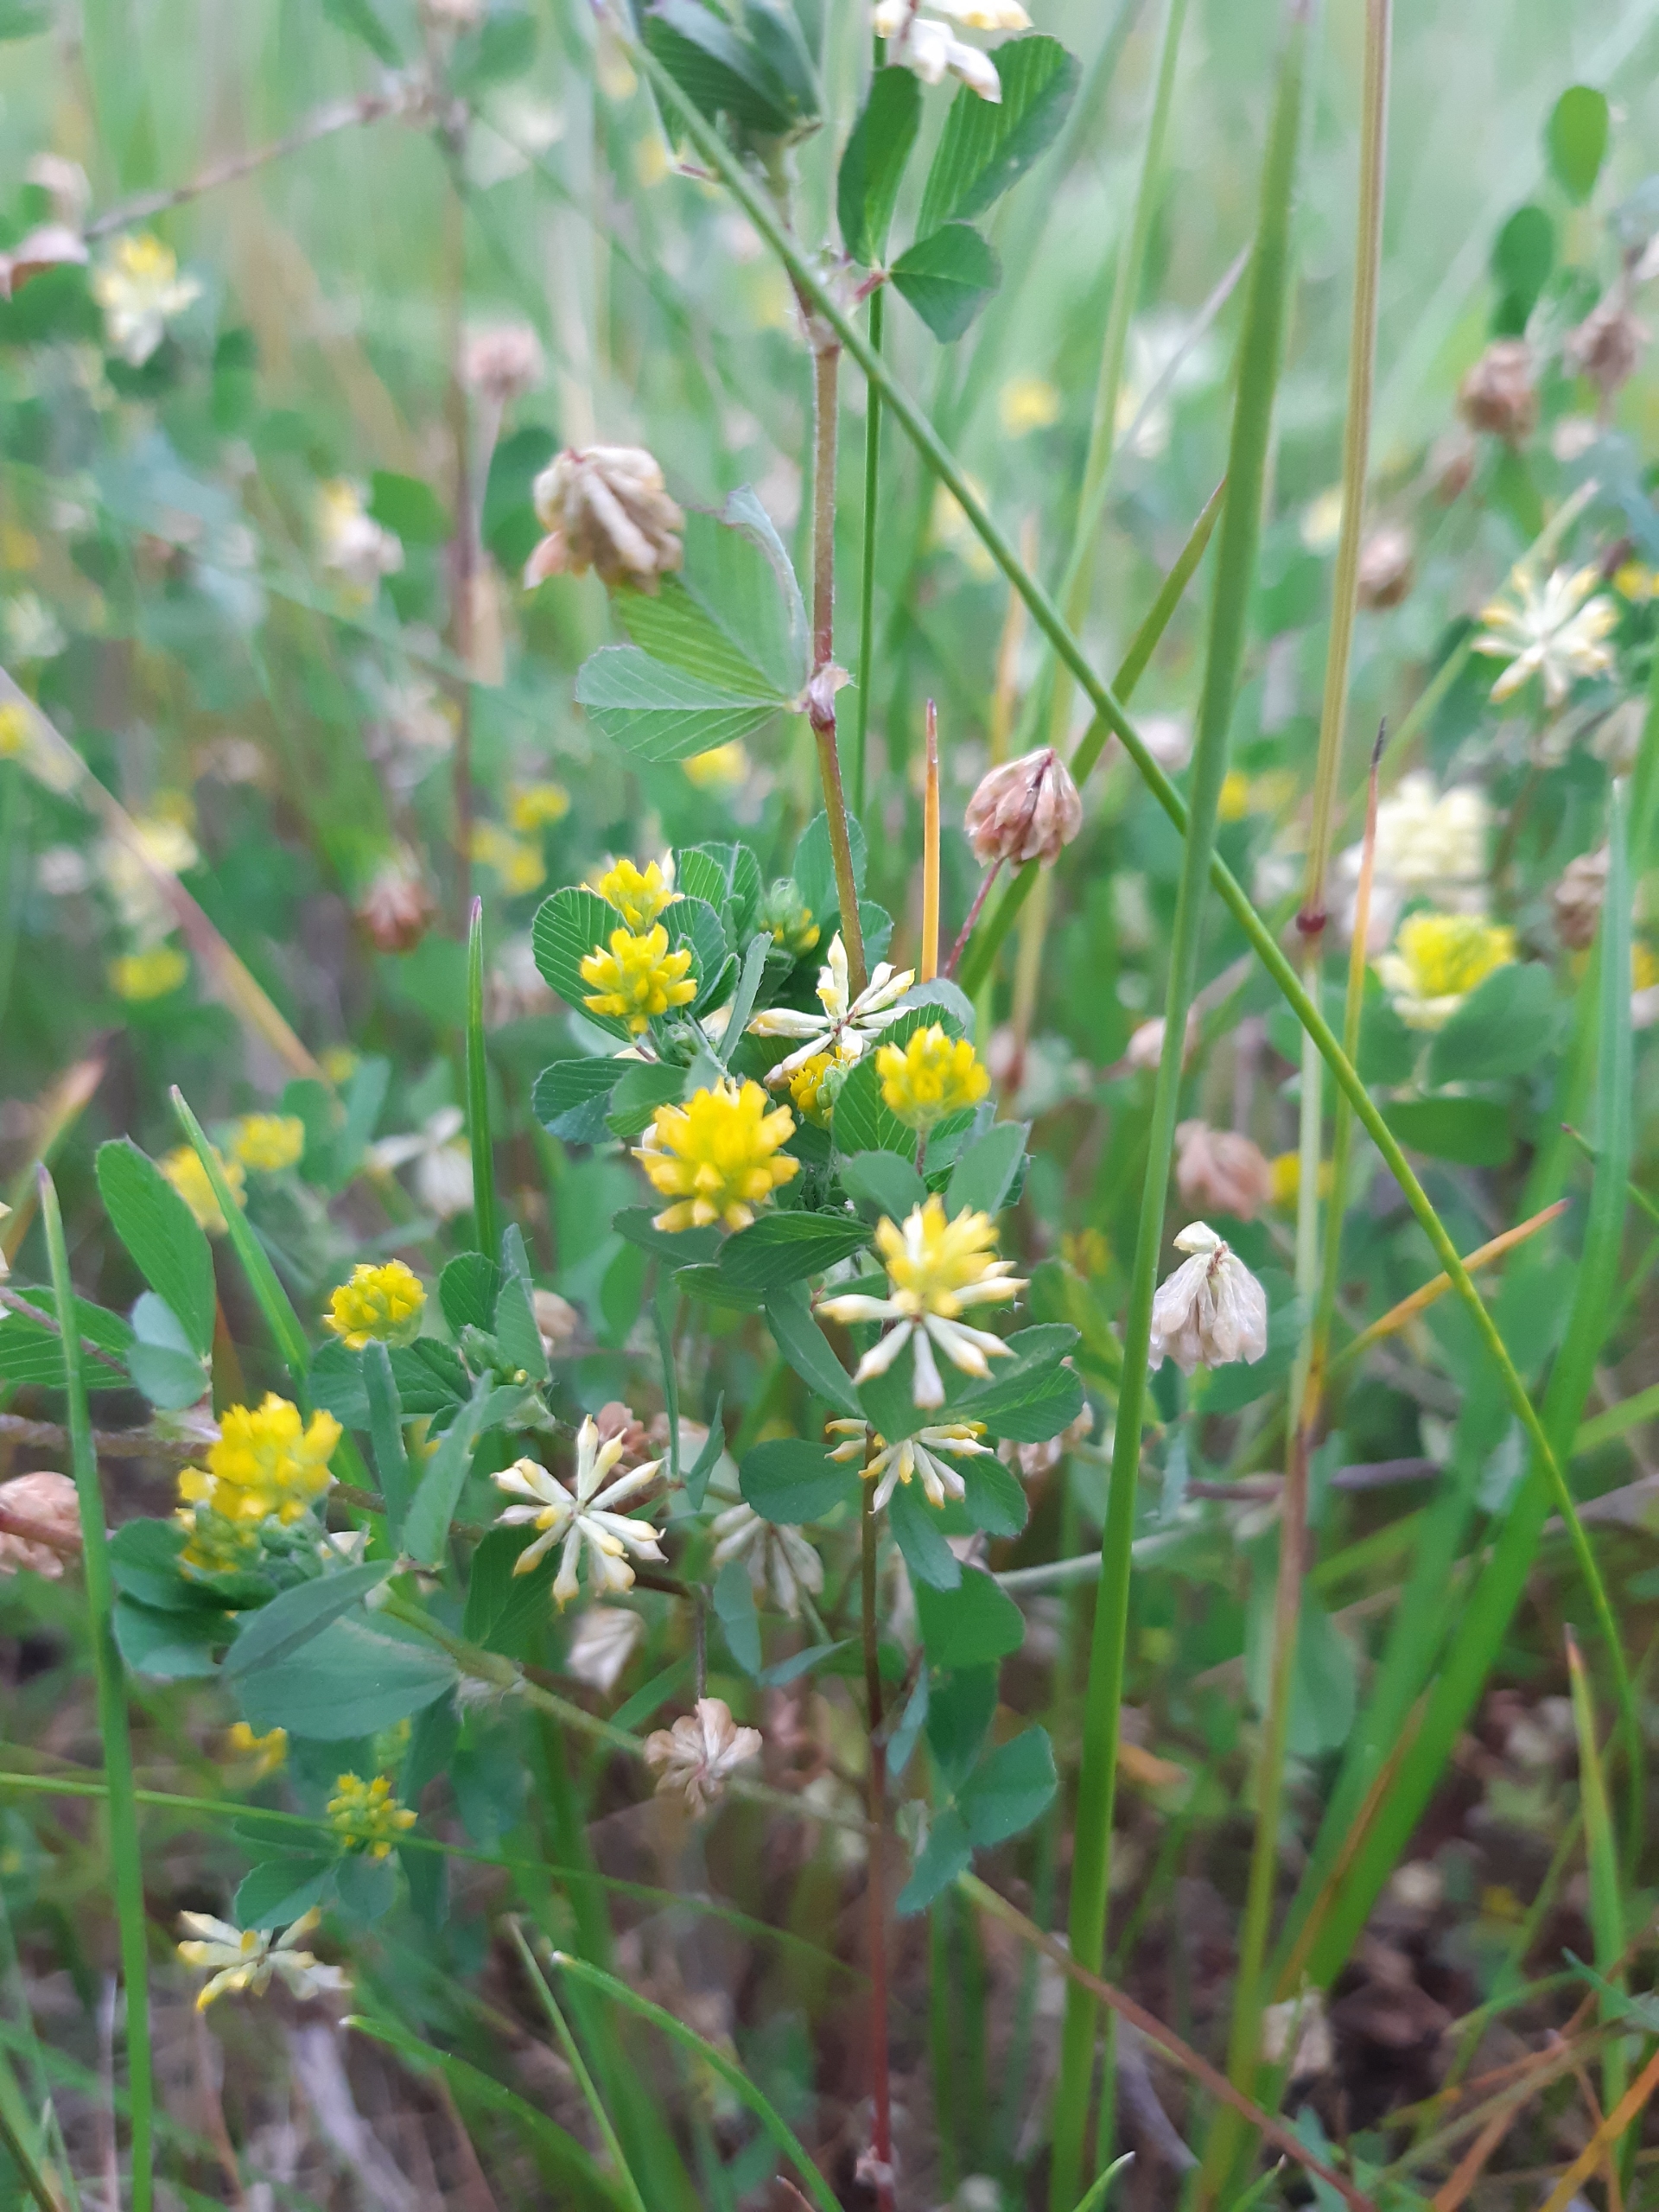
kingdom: Plantae
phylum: Tracheophyta
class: Magnoliopsida
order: Fabales
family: Fabaceae
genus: Trifolium
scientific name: Trifolium dubium
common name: Fin kløver
